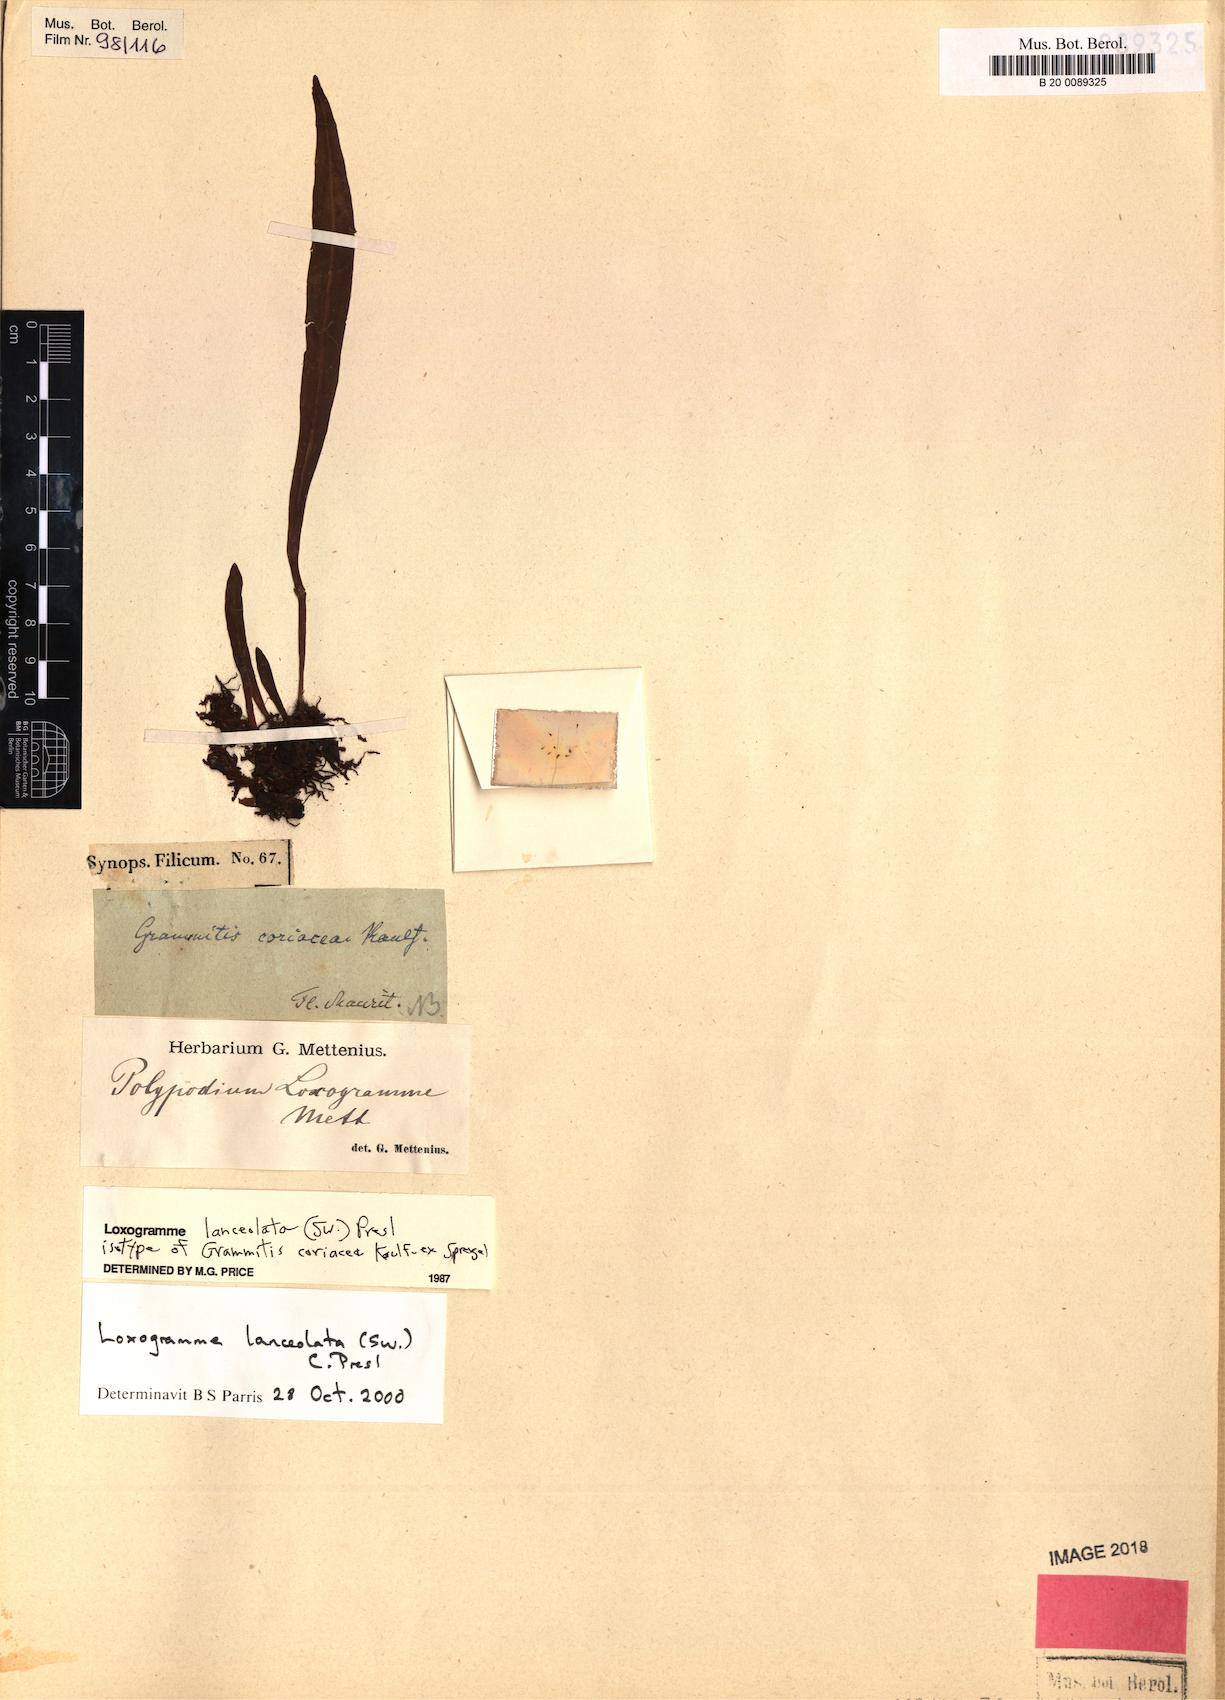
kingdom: Plantae
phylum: Tracheophyta
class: Polypodiopsida
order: Polypodiales
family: Polypodiaceae
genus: Loxogramme
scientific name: Loxogramme lanceolata
